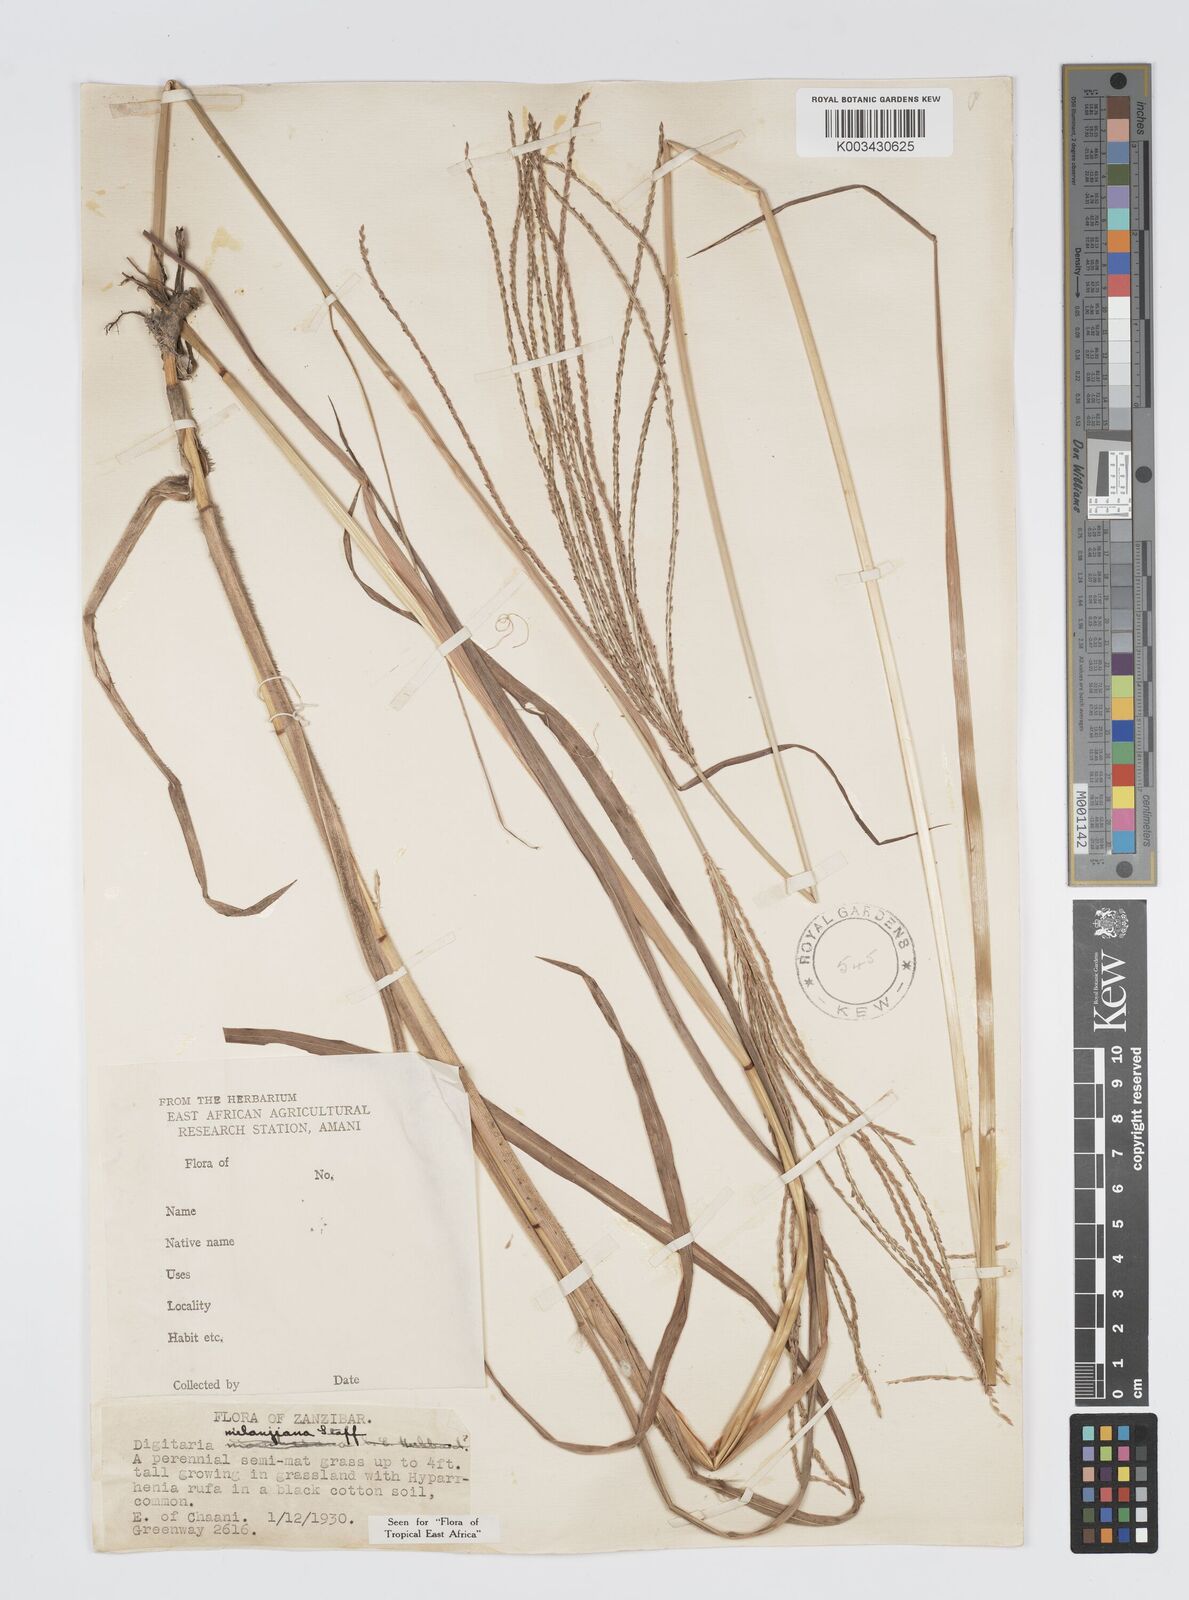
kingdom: Plantae
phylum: Tracheophyta
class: Liliopsida
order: Poales
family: Poaceae
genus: Digitaria
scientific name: Digitaria milanjiana
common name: Madagascar crabgrass
